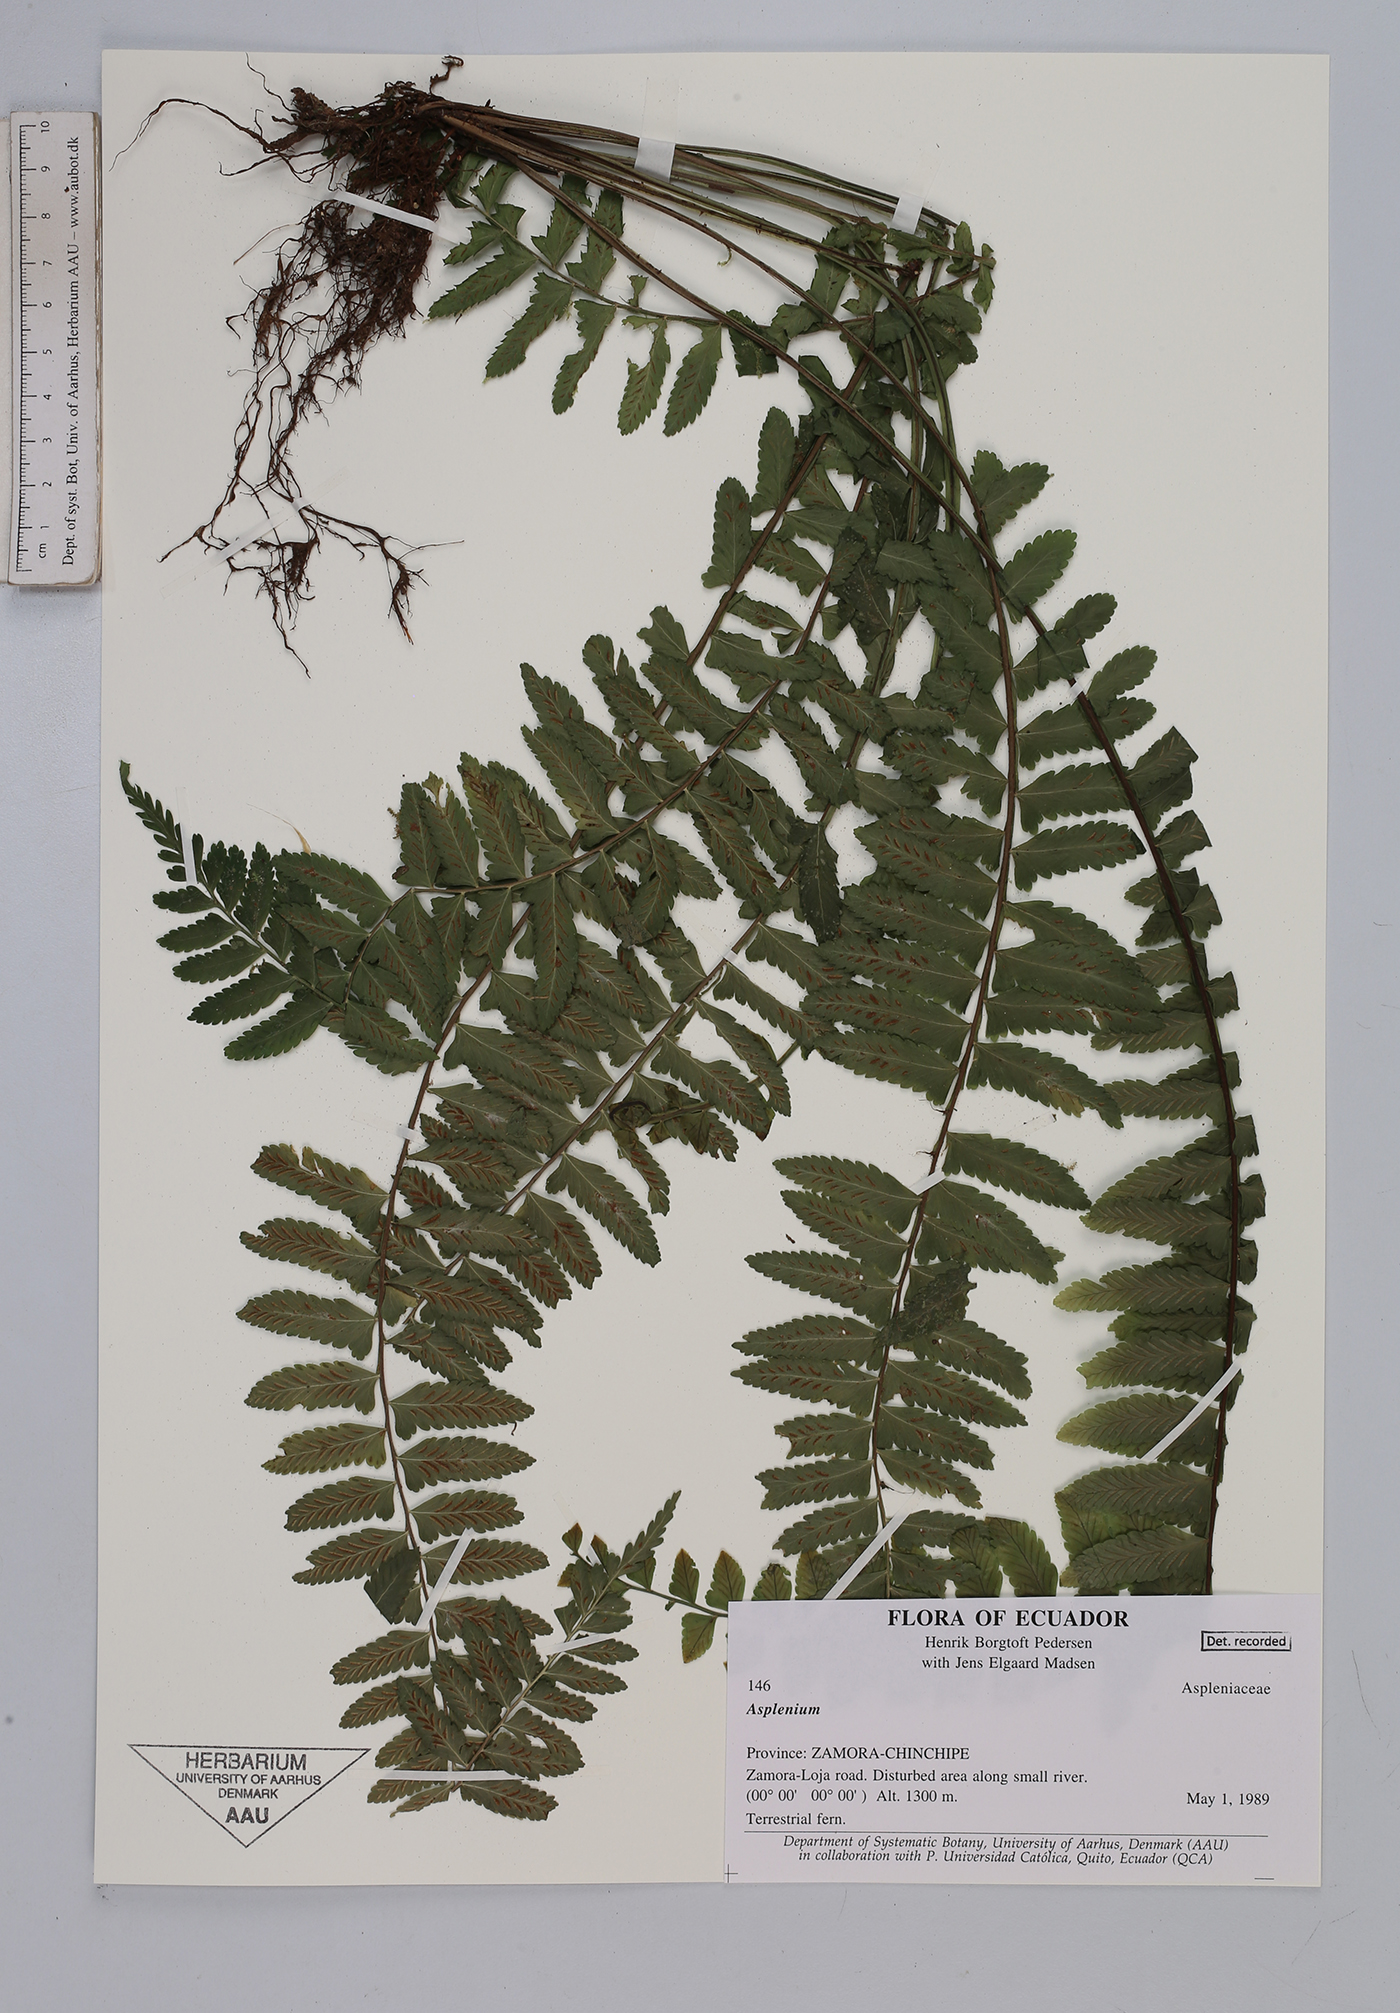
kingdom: Plantae
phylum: Tracheophyta
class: Polypodiopsida
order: Polypodiales
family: Aspleniaceae
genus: Asplenium
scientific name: Asplenium
